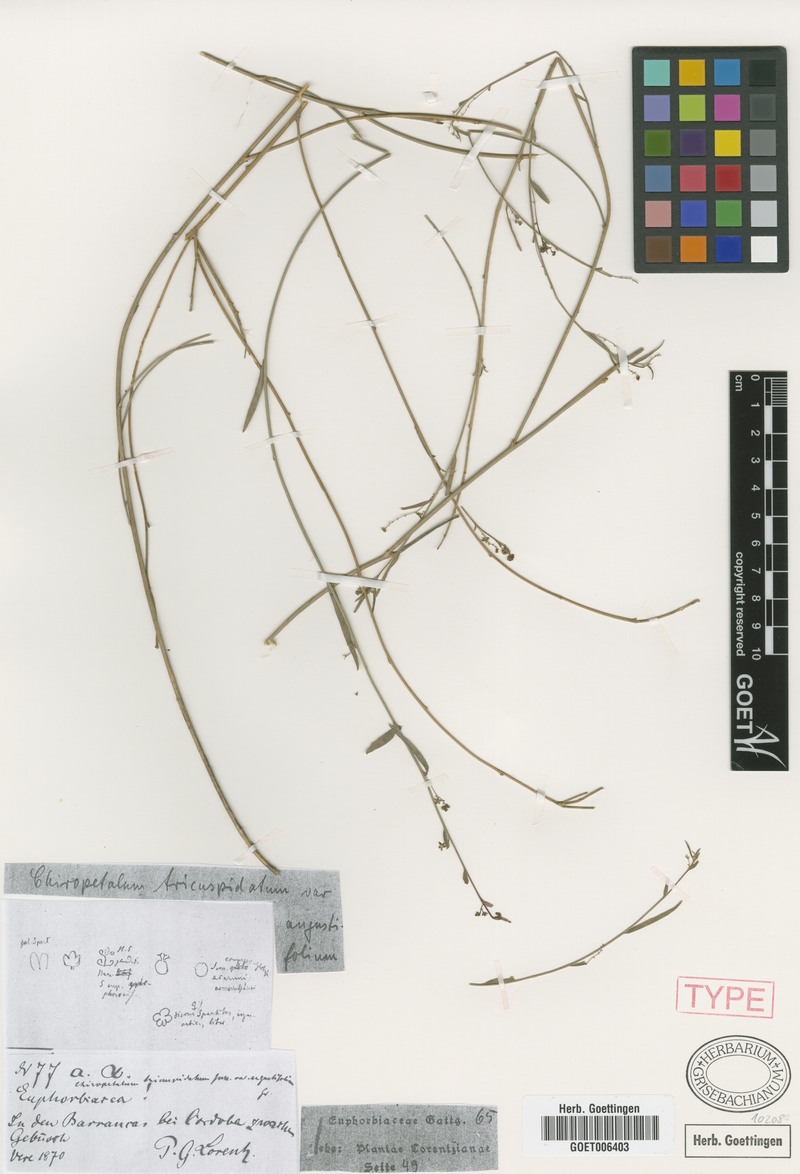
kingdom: Plantae
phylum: Tracheophyta
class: Magnoliopsida
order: Malpighiales
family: Euphorbiaceae
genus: Chiropetalum
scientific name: Chiropetalum tricuspidatum
